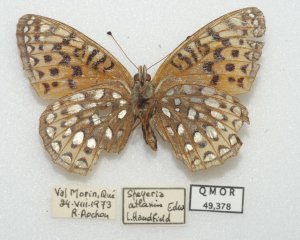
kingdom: Animalia
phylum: Arthropoda
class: Insecta
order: Lepidoptera
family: Nymphalidae
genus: Speyeria
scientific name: Speyeria atlantis
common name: Atlantis Fritillary
